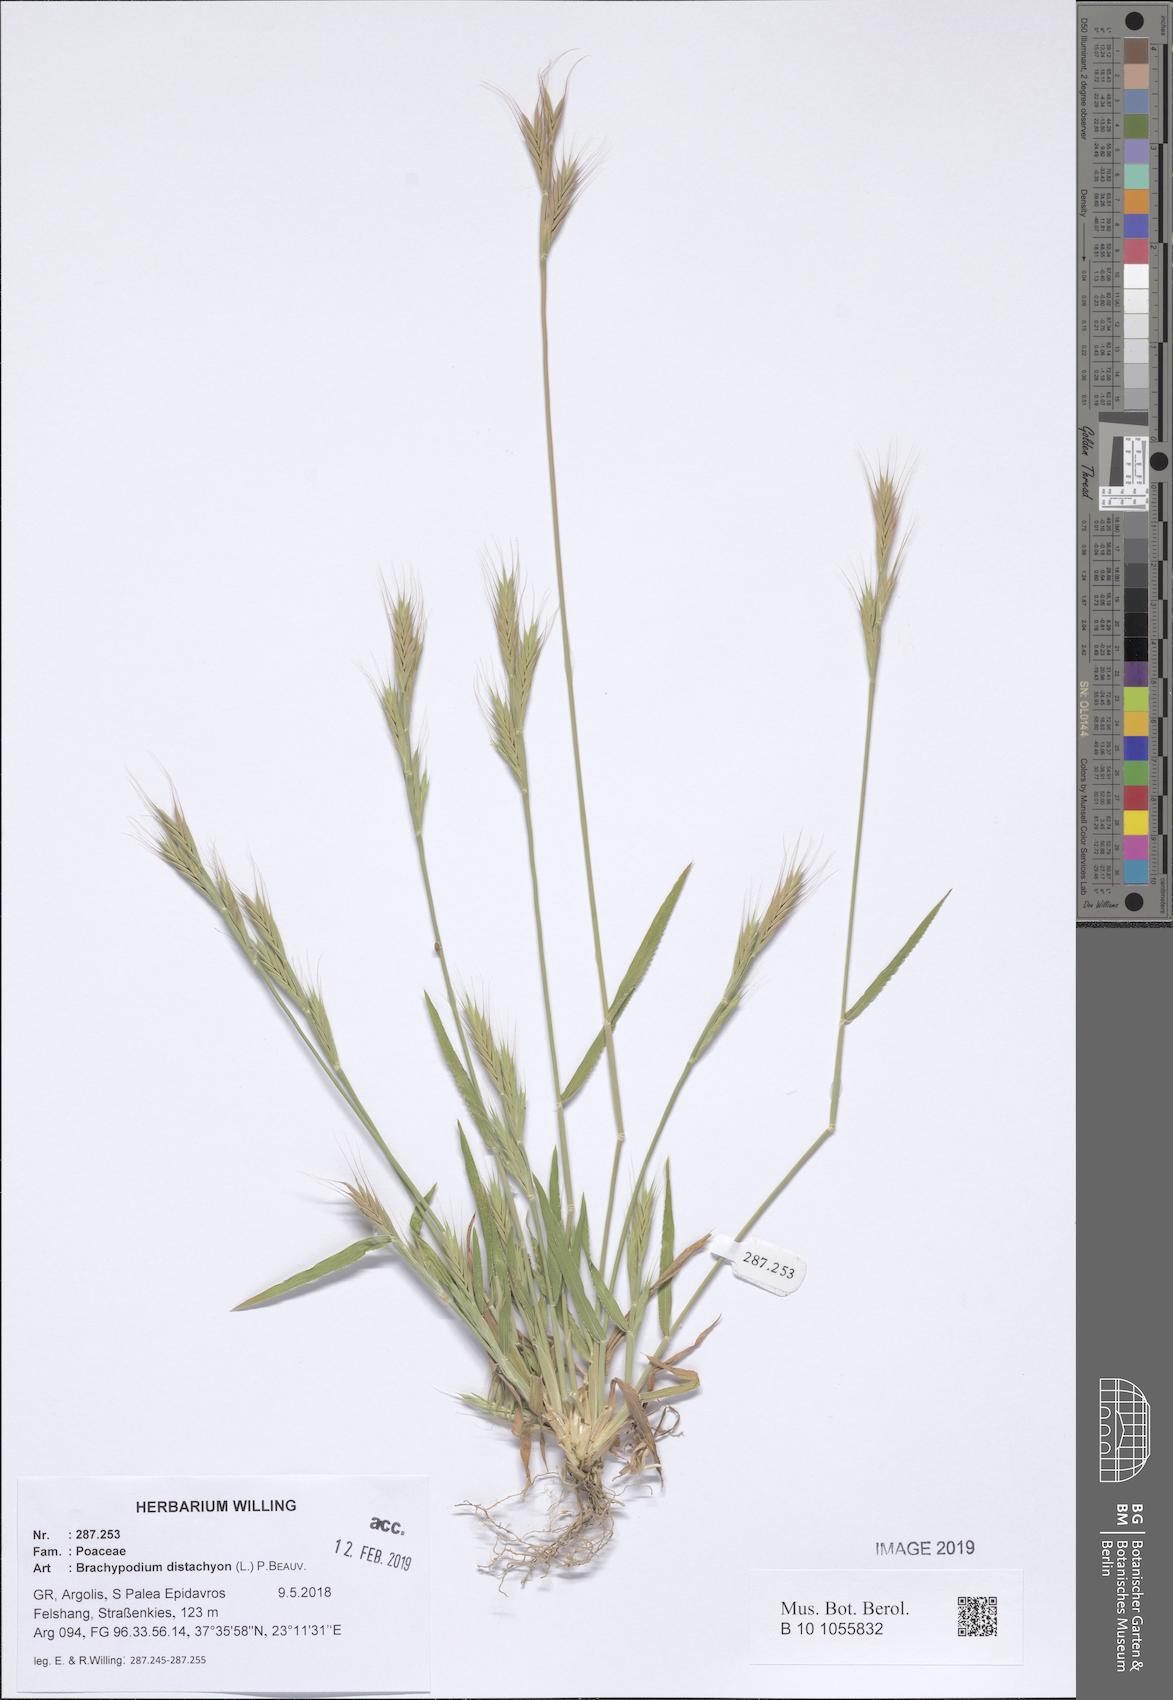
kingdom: Plantae
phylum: Tracheophyta
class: Liliopsida
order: Poales
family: Poaceae
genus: Brachypodium
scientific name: Brachypodium distachyon
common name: Stiff brome
